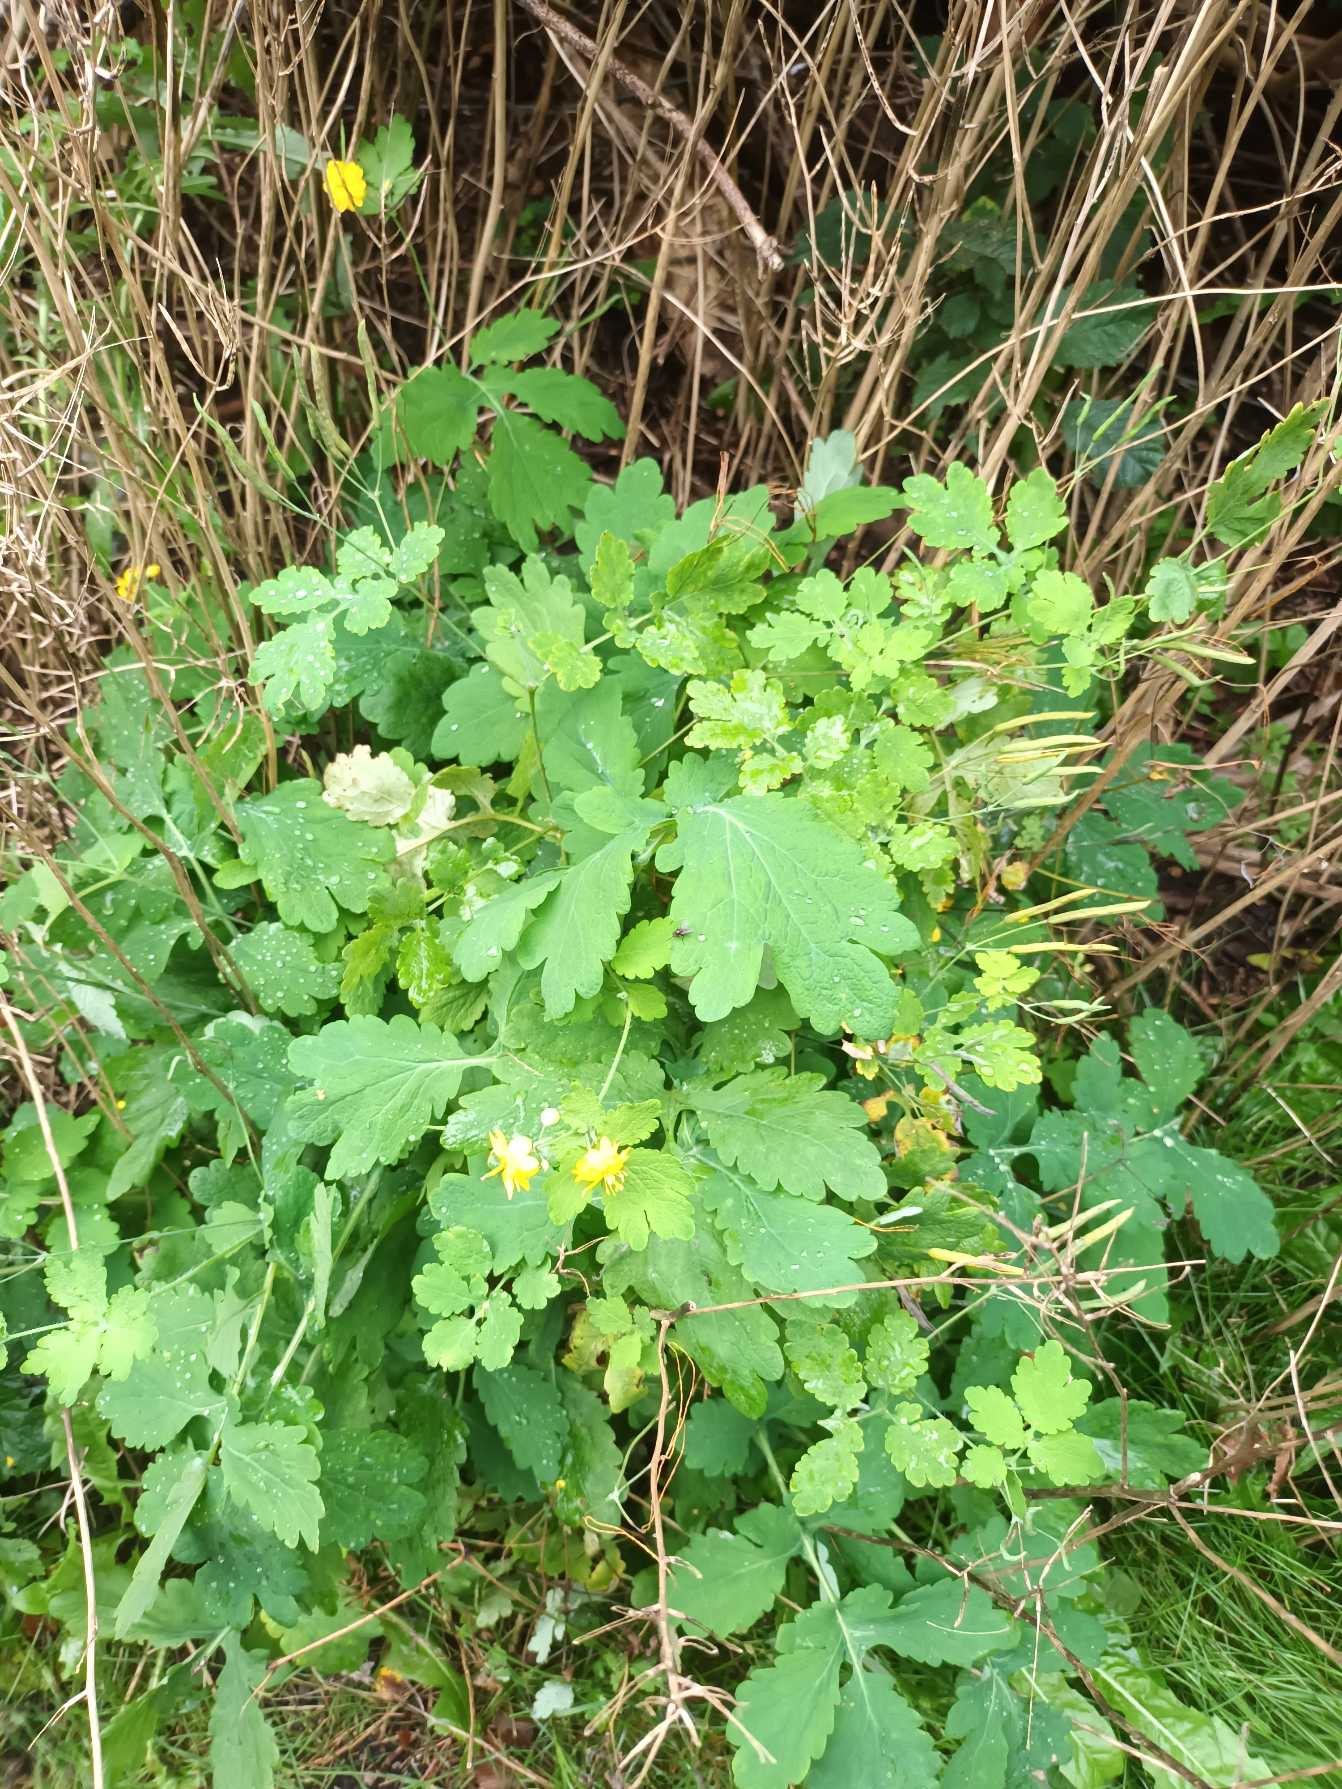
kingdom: Plantae
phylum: Tracheophyta
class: Magnoliopsida
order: Ranunculales
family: Papaveraceae
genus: Chelidonium
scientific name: Chelidonium majus
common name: Svaleurt
